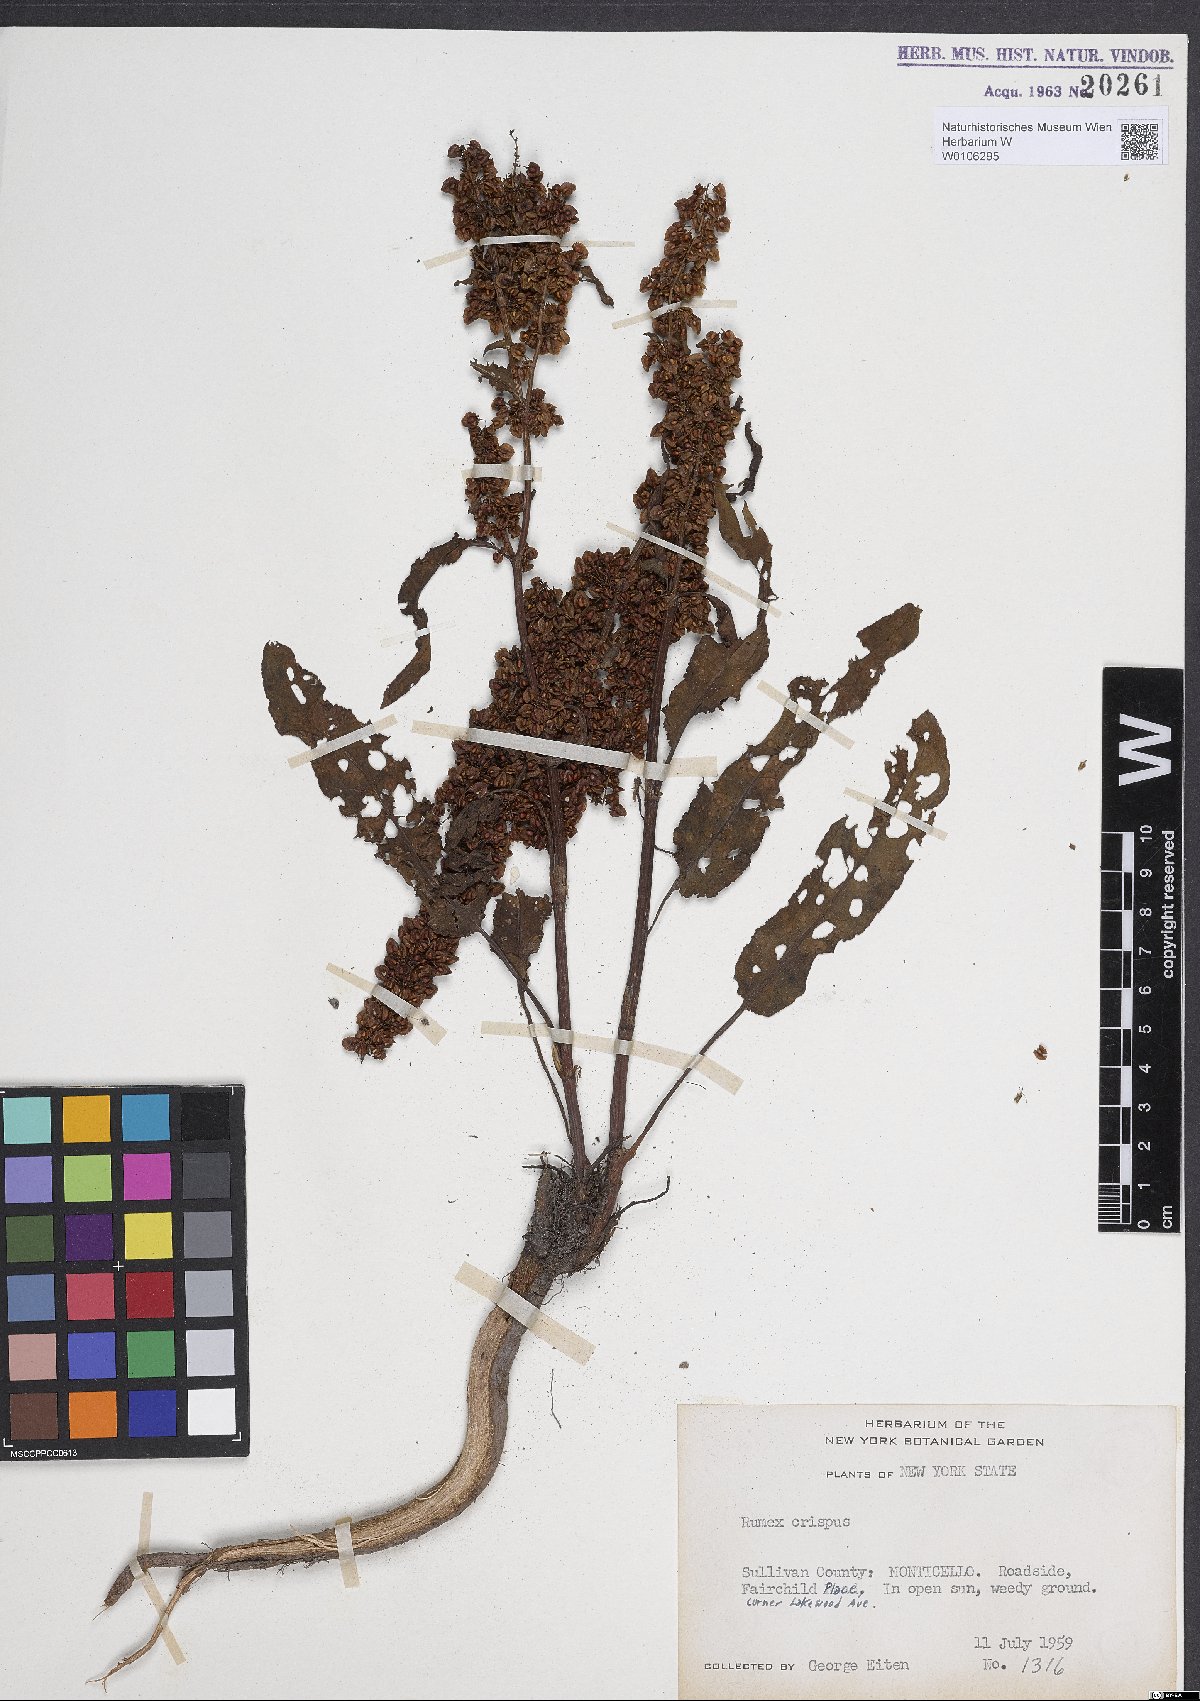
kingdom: Plantae
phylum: Tracheophyta
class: Magnoliopsida
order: Caryophyllales
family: Polygonaceae
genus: Rumex
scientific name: Rumex crispus
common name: Curled dock
